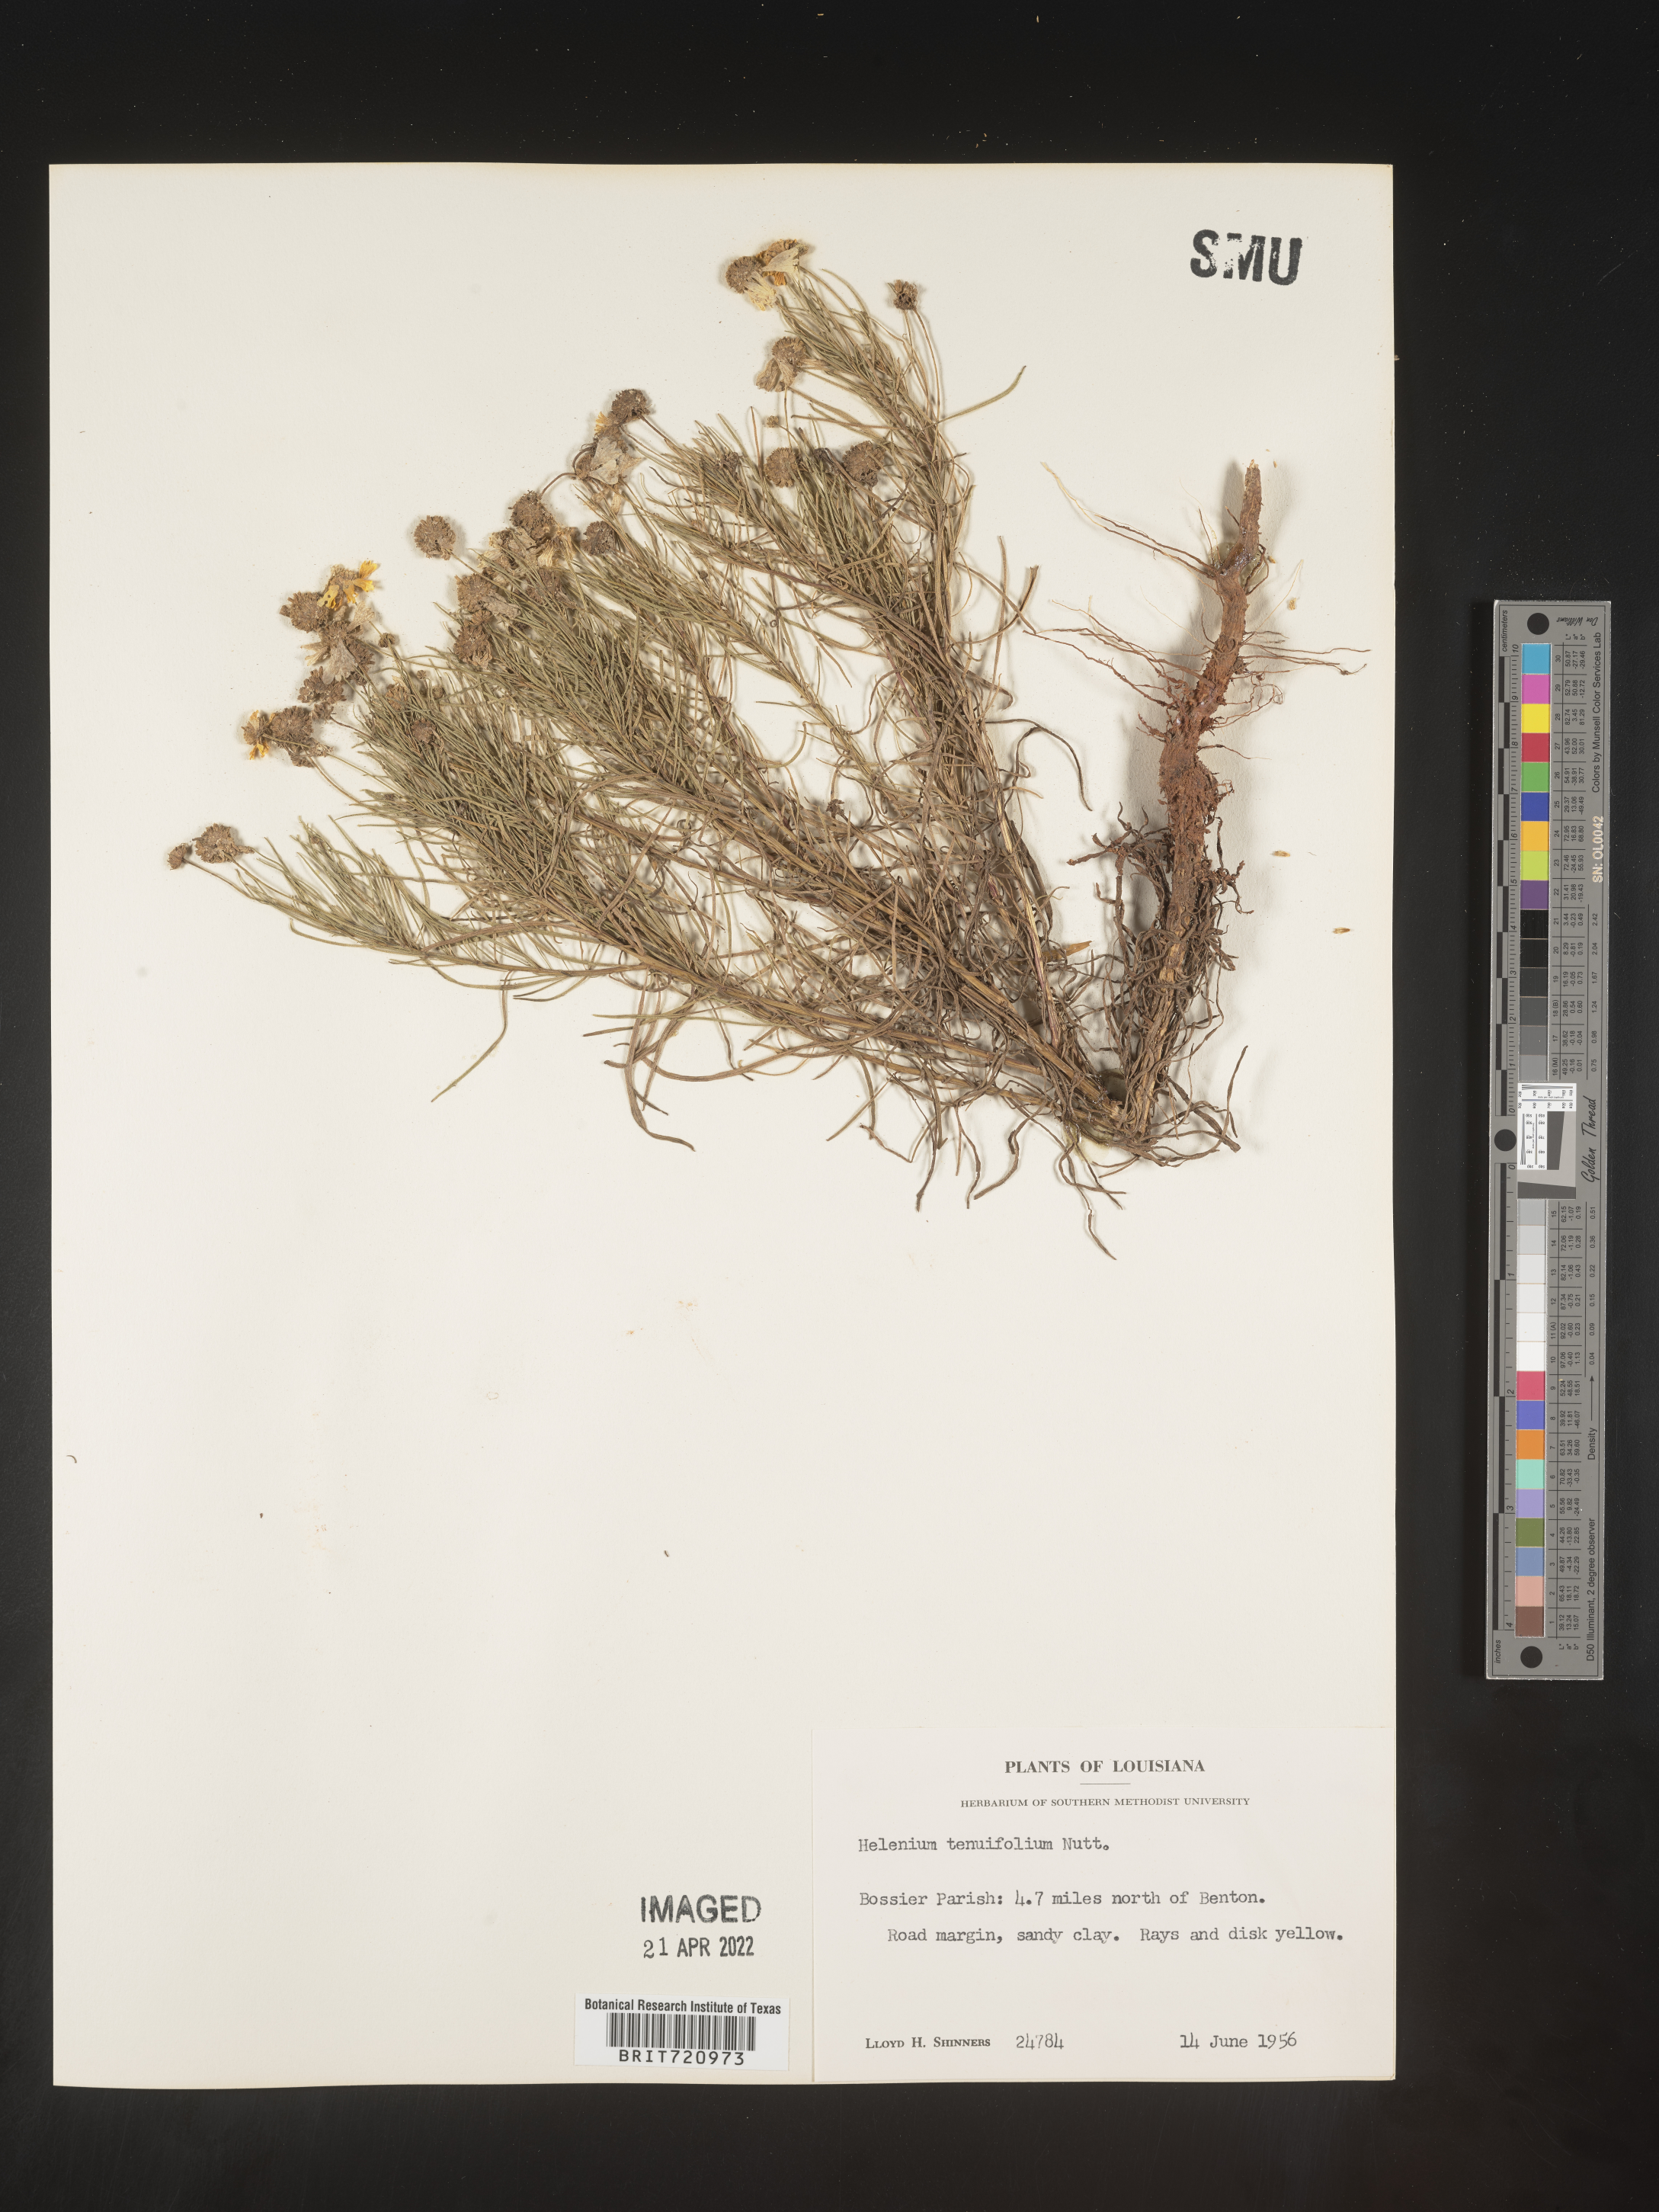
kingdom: Plantae
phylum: Tracheophyta
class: Magnoliopsida
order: Asterales
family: Asteraceae
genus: Helenium
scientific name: Helenium amarum
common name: Bitter sneezeweed
